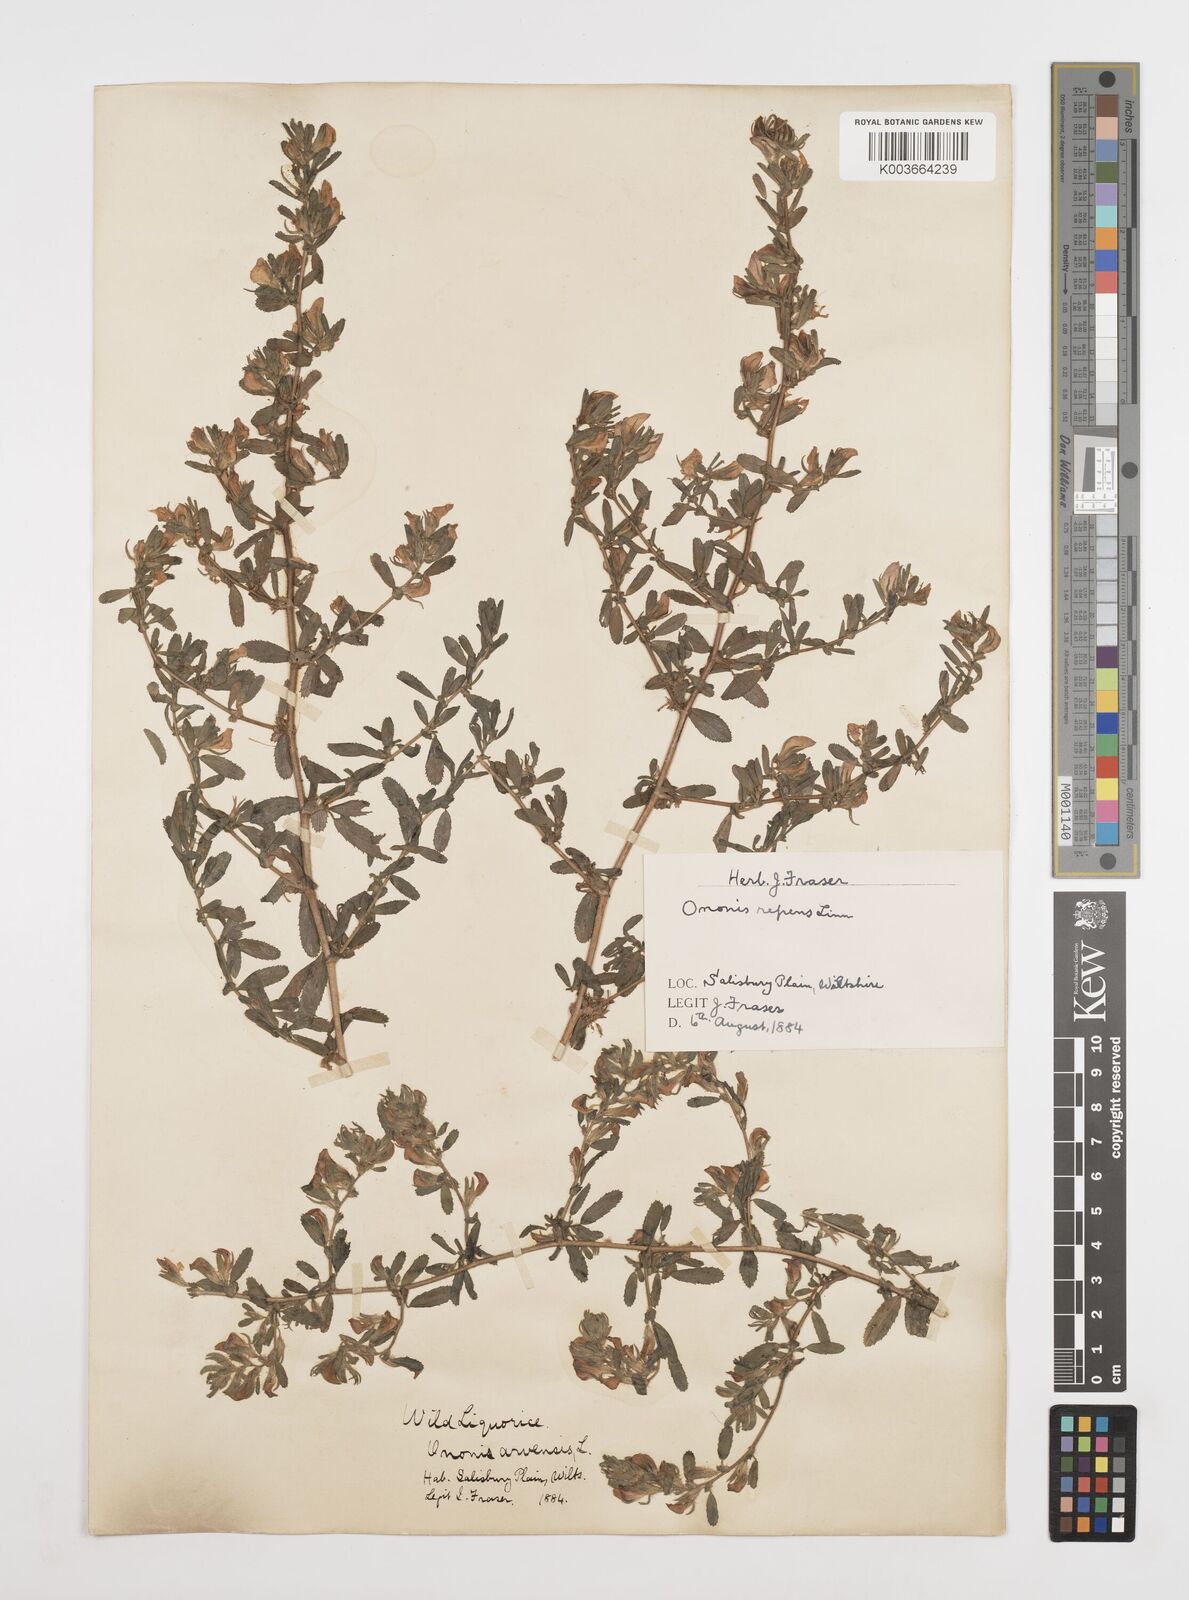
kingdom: Plantae
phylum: Tracheophyta
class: Magnoliopsida
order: Fabales
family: Fabaceae
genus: Ononis
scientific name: Ononis spinosa
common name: Spiny restharrow
